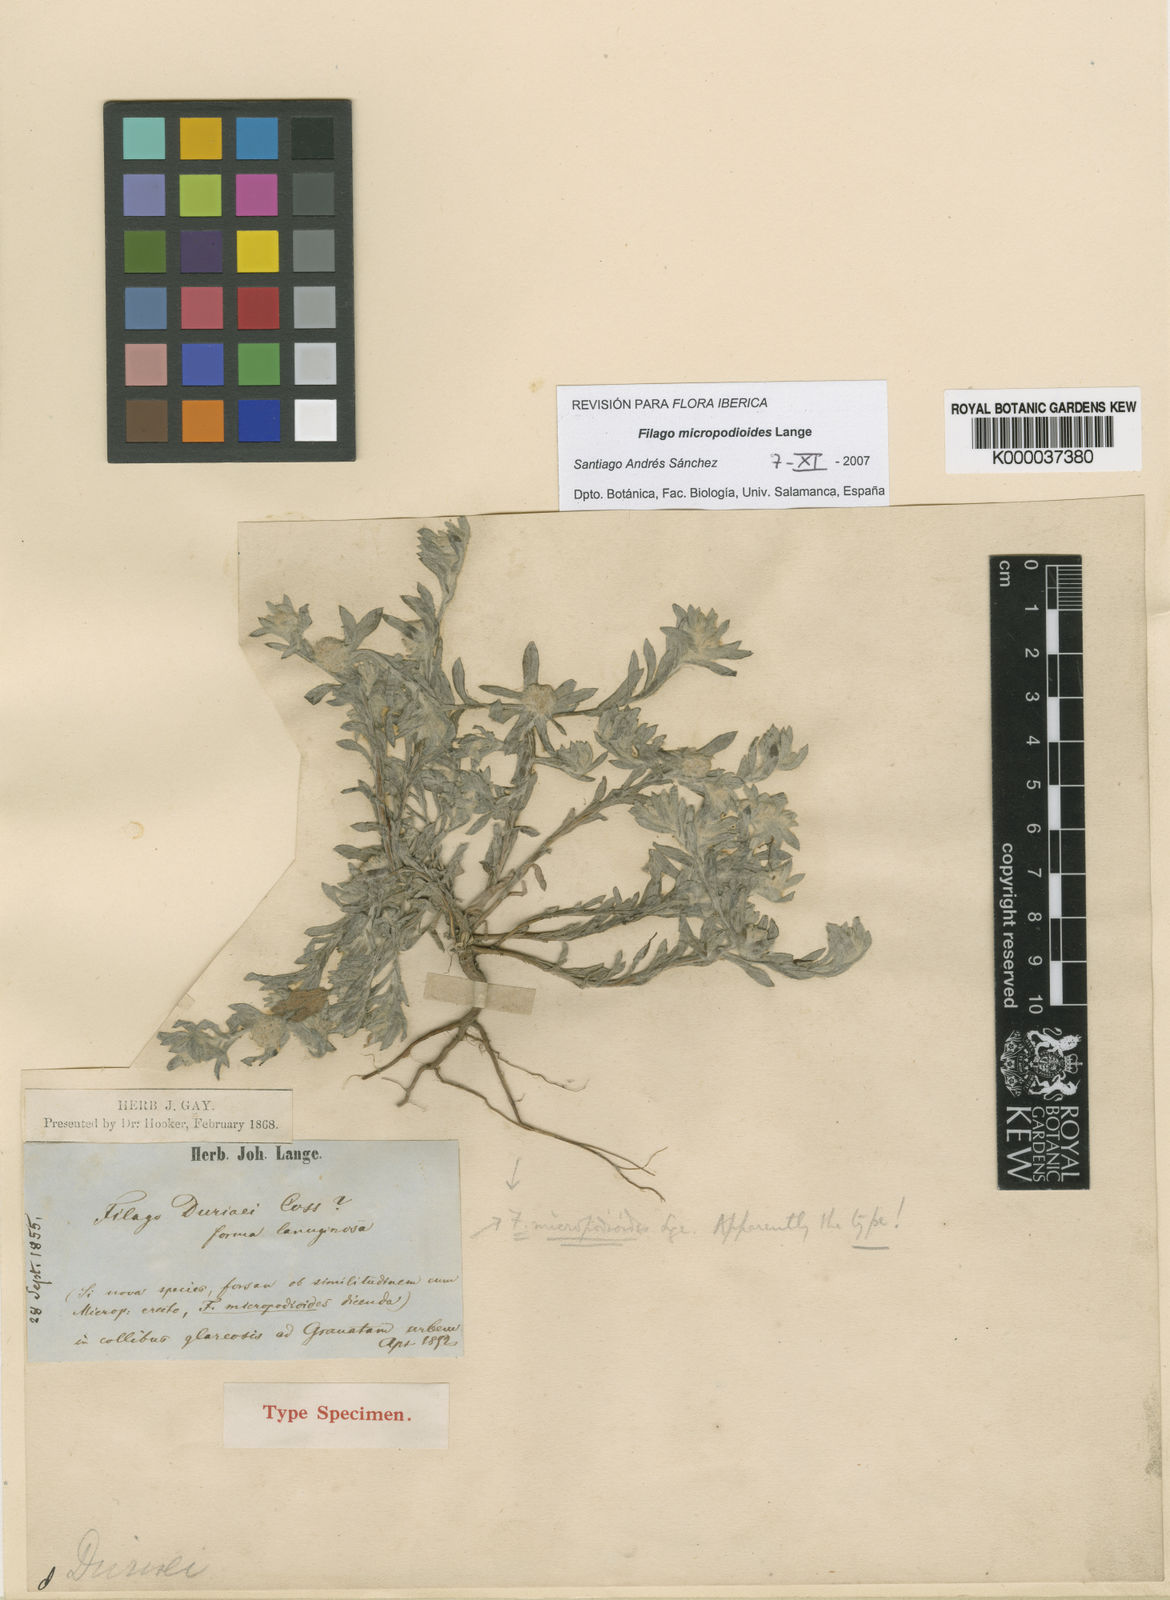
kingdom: Plantae
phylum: Tracheophyta
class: Magnoliopsida
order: Asterales
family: Asteraceae
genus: Filago
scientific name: Filago micropodioides
